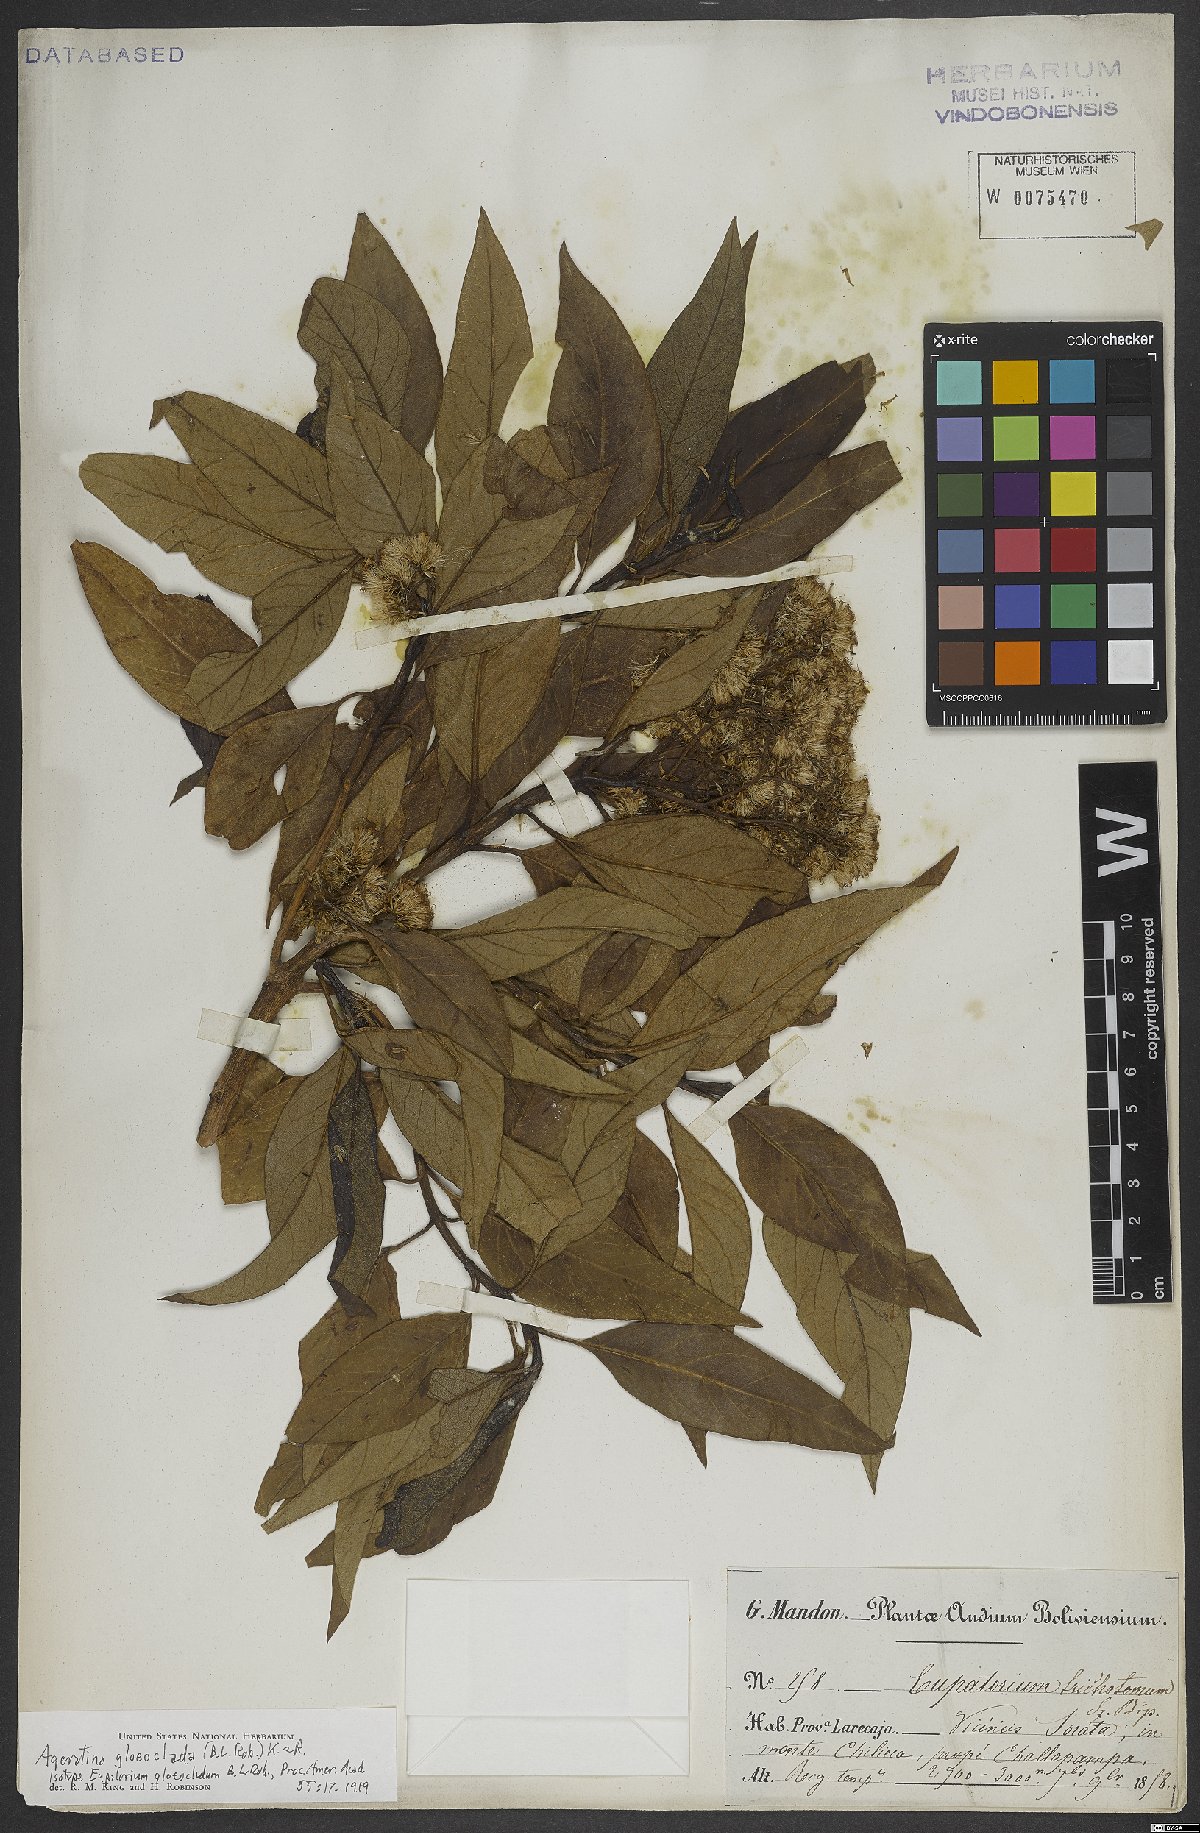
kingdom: Plantae
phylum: Tracheophyta
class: Magnoliopsida
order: Asterales
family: Asteraceae
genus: Ageratina
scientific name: Ageratina gloeoclada
